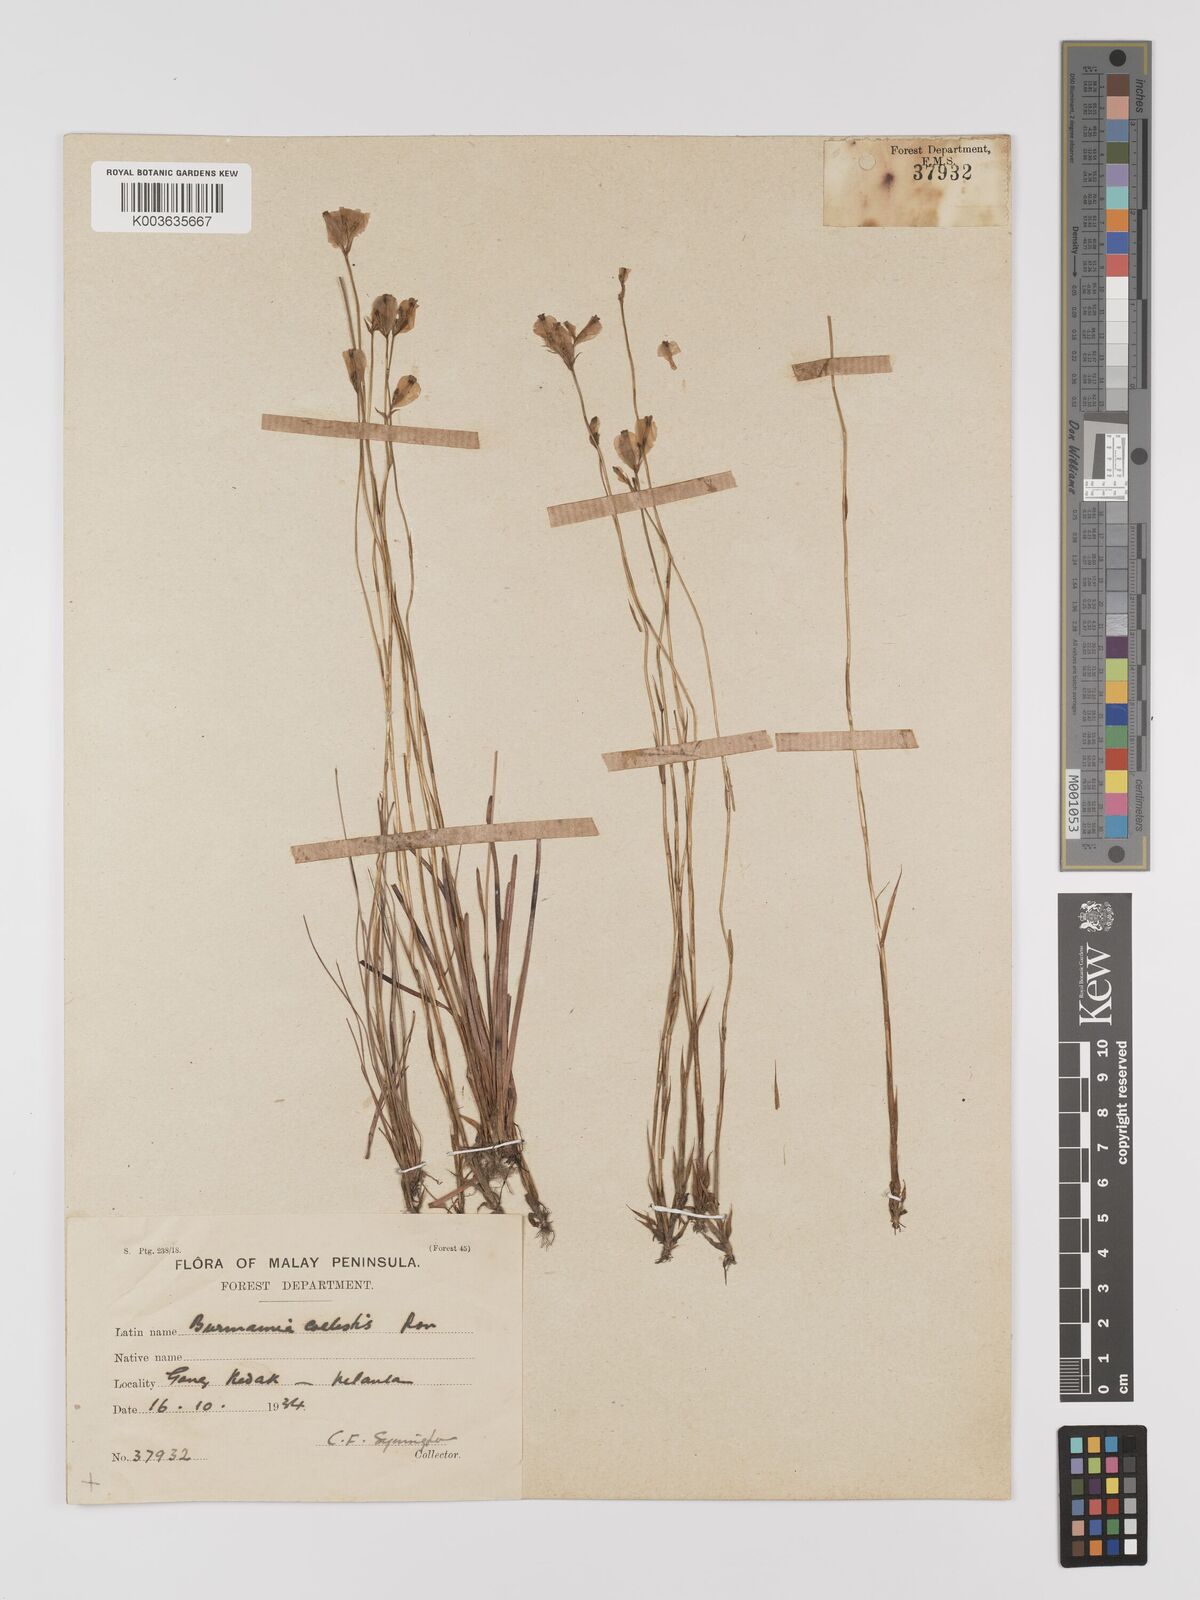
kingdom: Plantae
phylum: Tracheophyta
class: Liliopsida
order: Dioscoreales
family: Burmanniaceae
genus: Burmannia
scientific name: Burmannia coelestis
